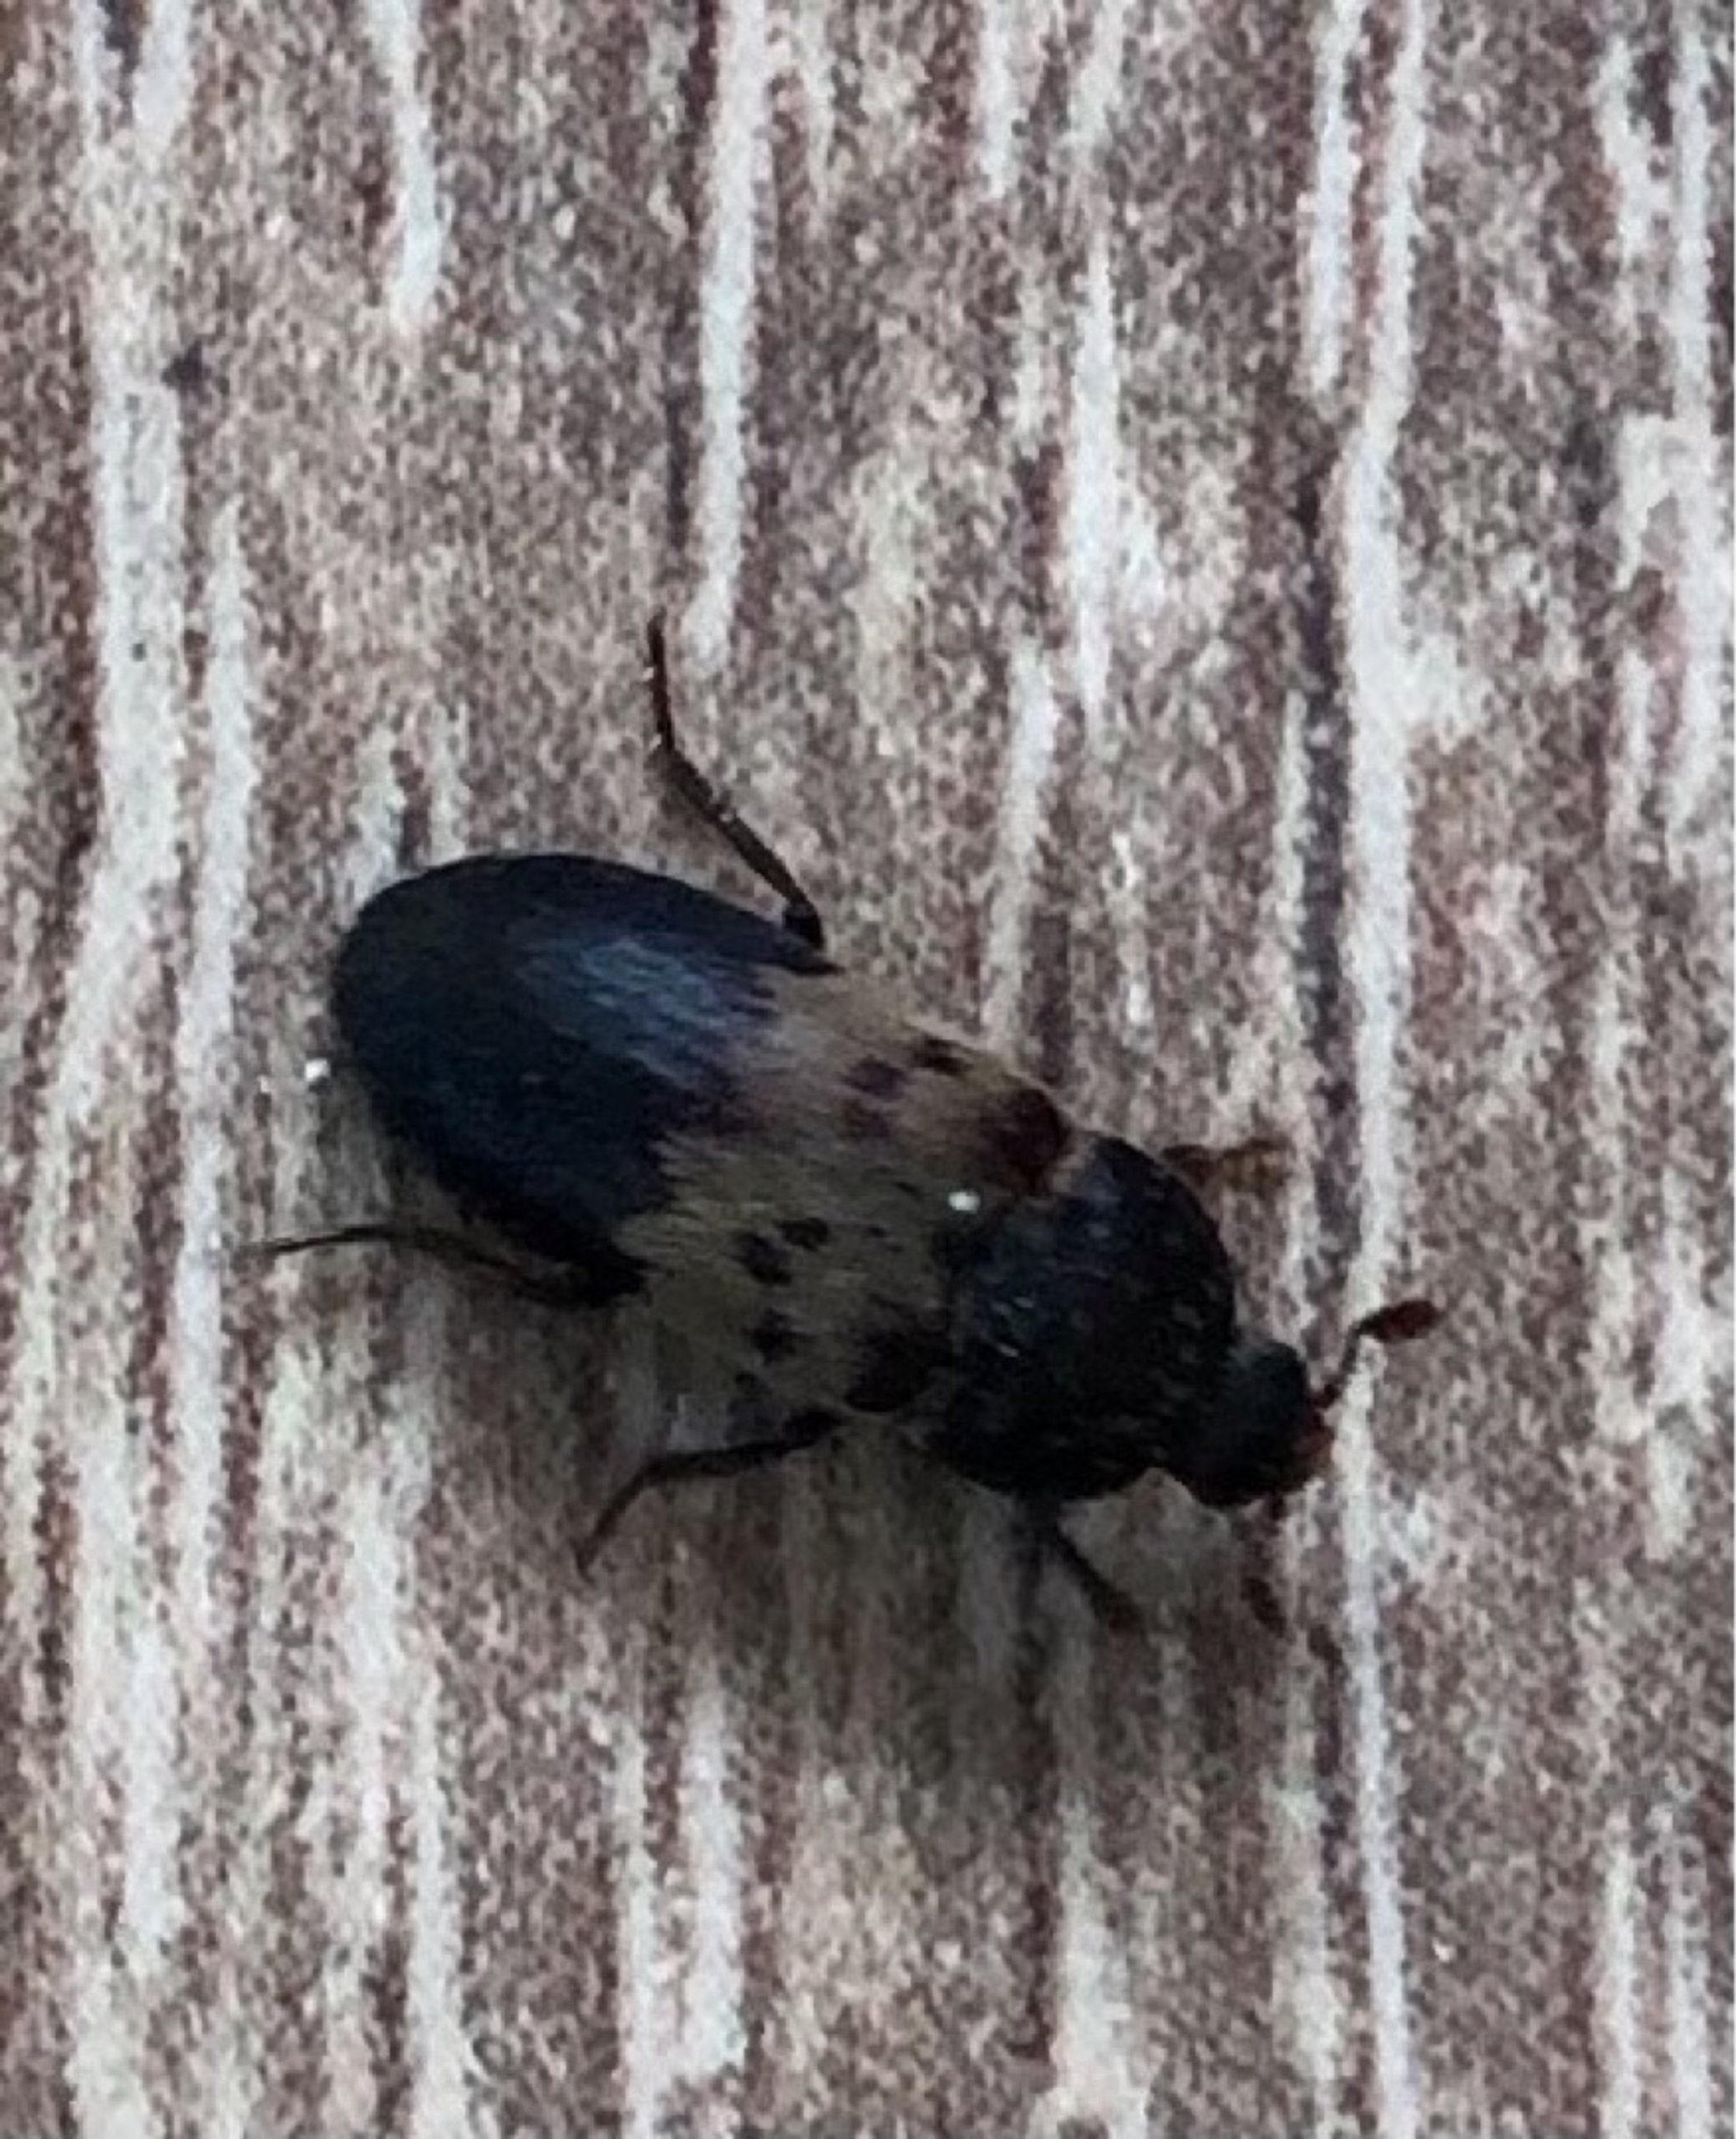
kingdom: Animalia
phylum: Arthropoda
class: Insecta
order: Coleoptera
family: Dermestidae
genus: Dermestes
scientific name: Dermestes lardarius
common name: Flæskeklanner
